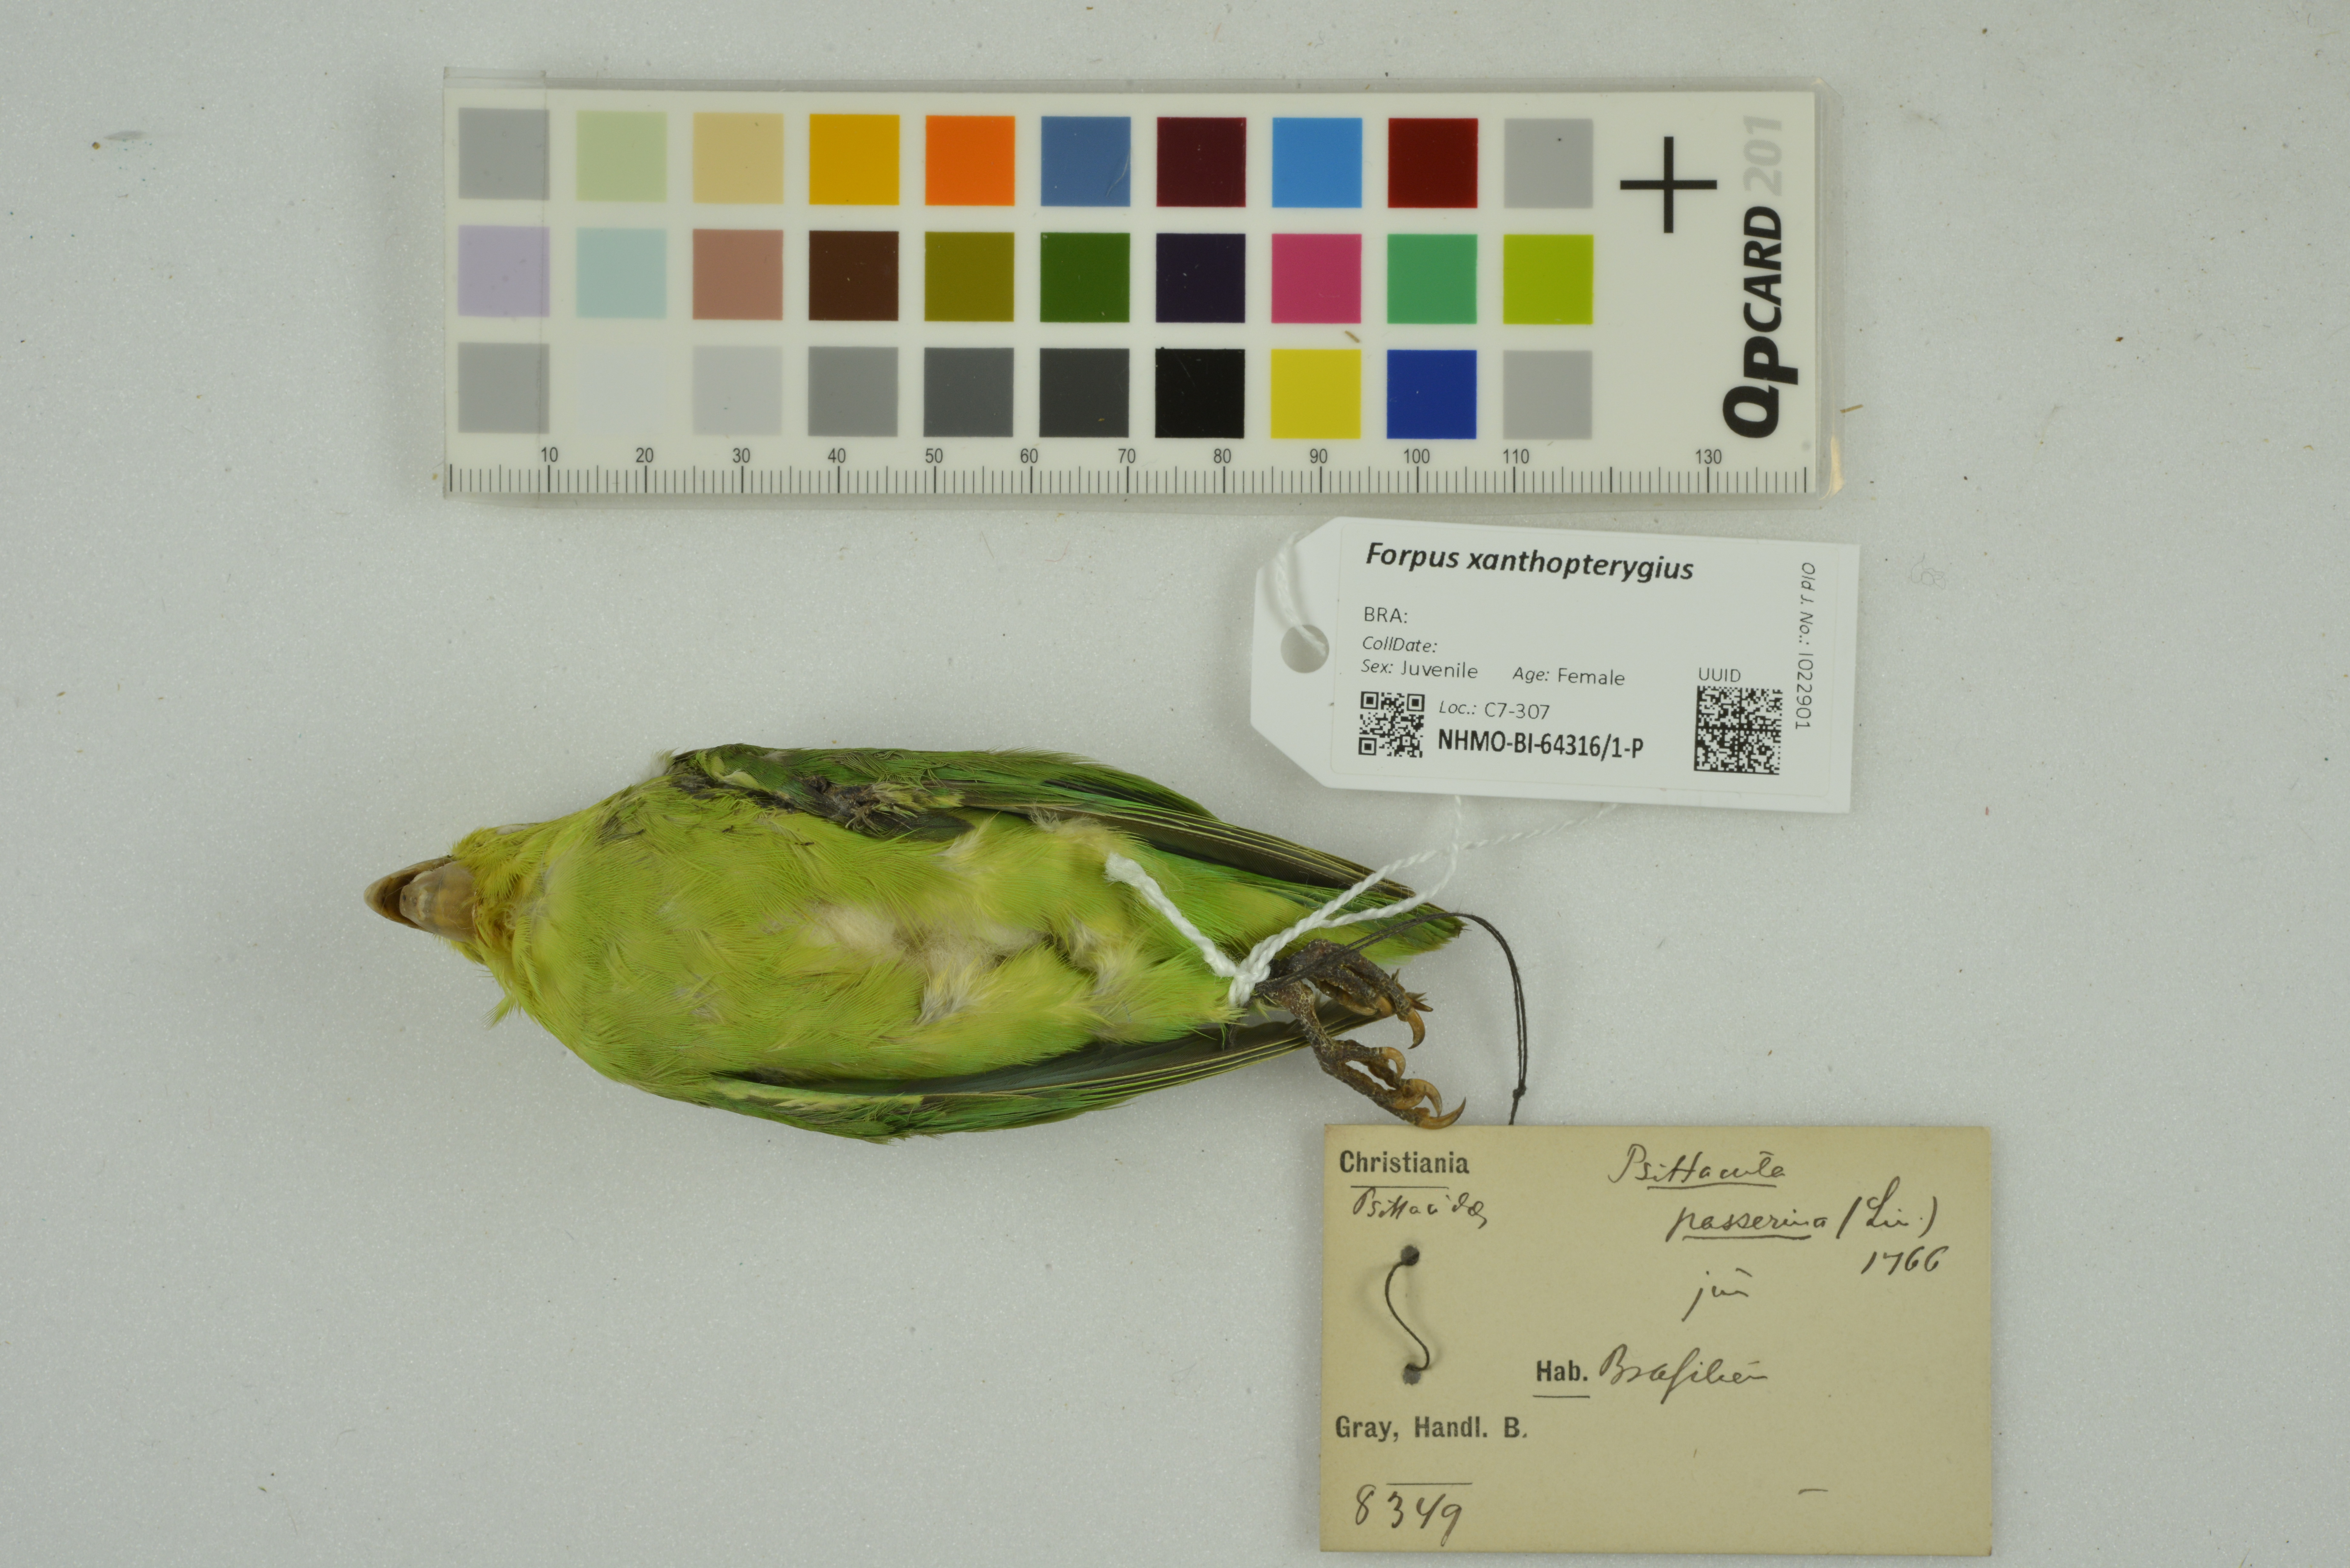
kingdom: Animalia
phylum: Chordata
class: Aves
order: Psittaciformes
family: Psittacidae
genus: Forpus
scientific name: Forpus xanthopterygius
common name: Blue-winged parrotlet
